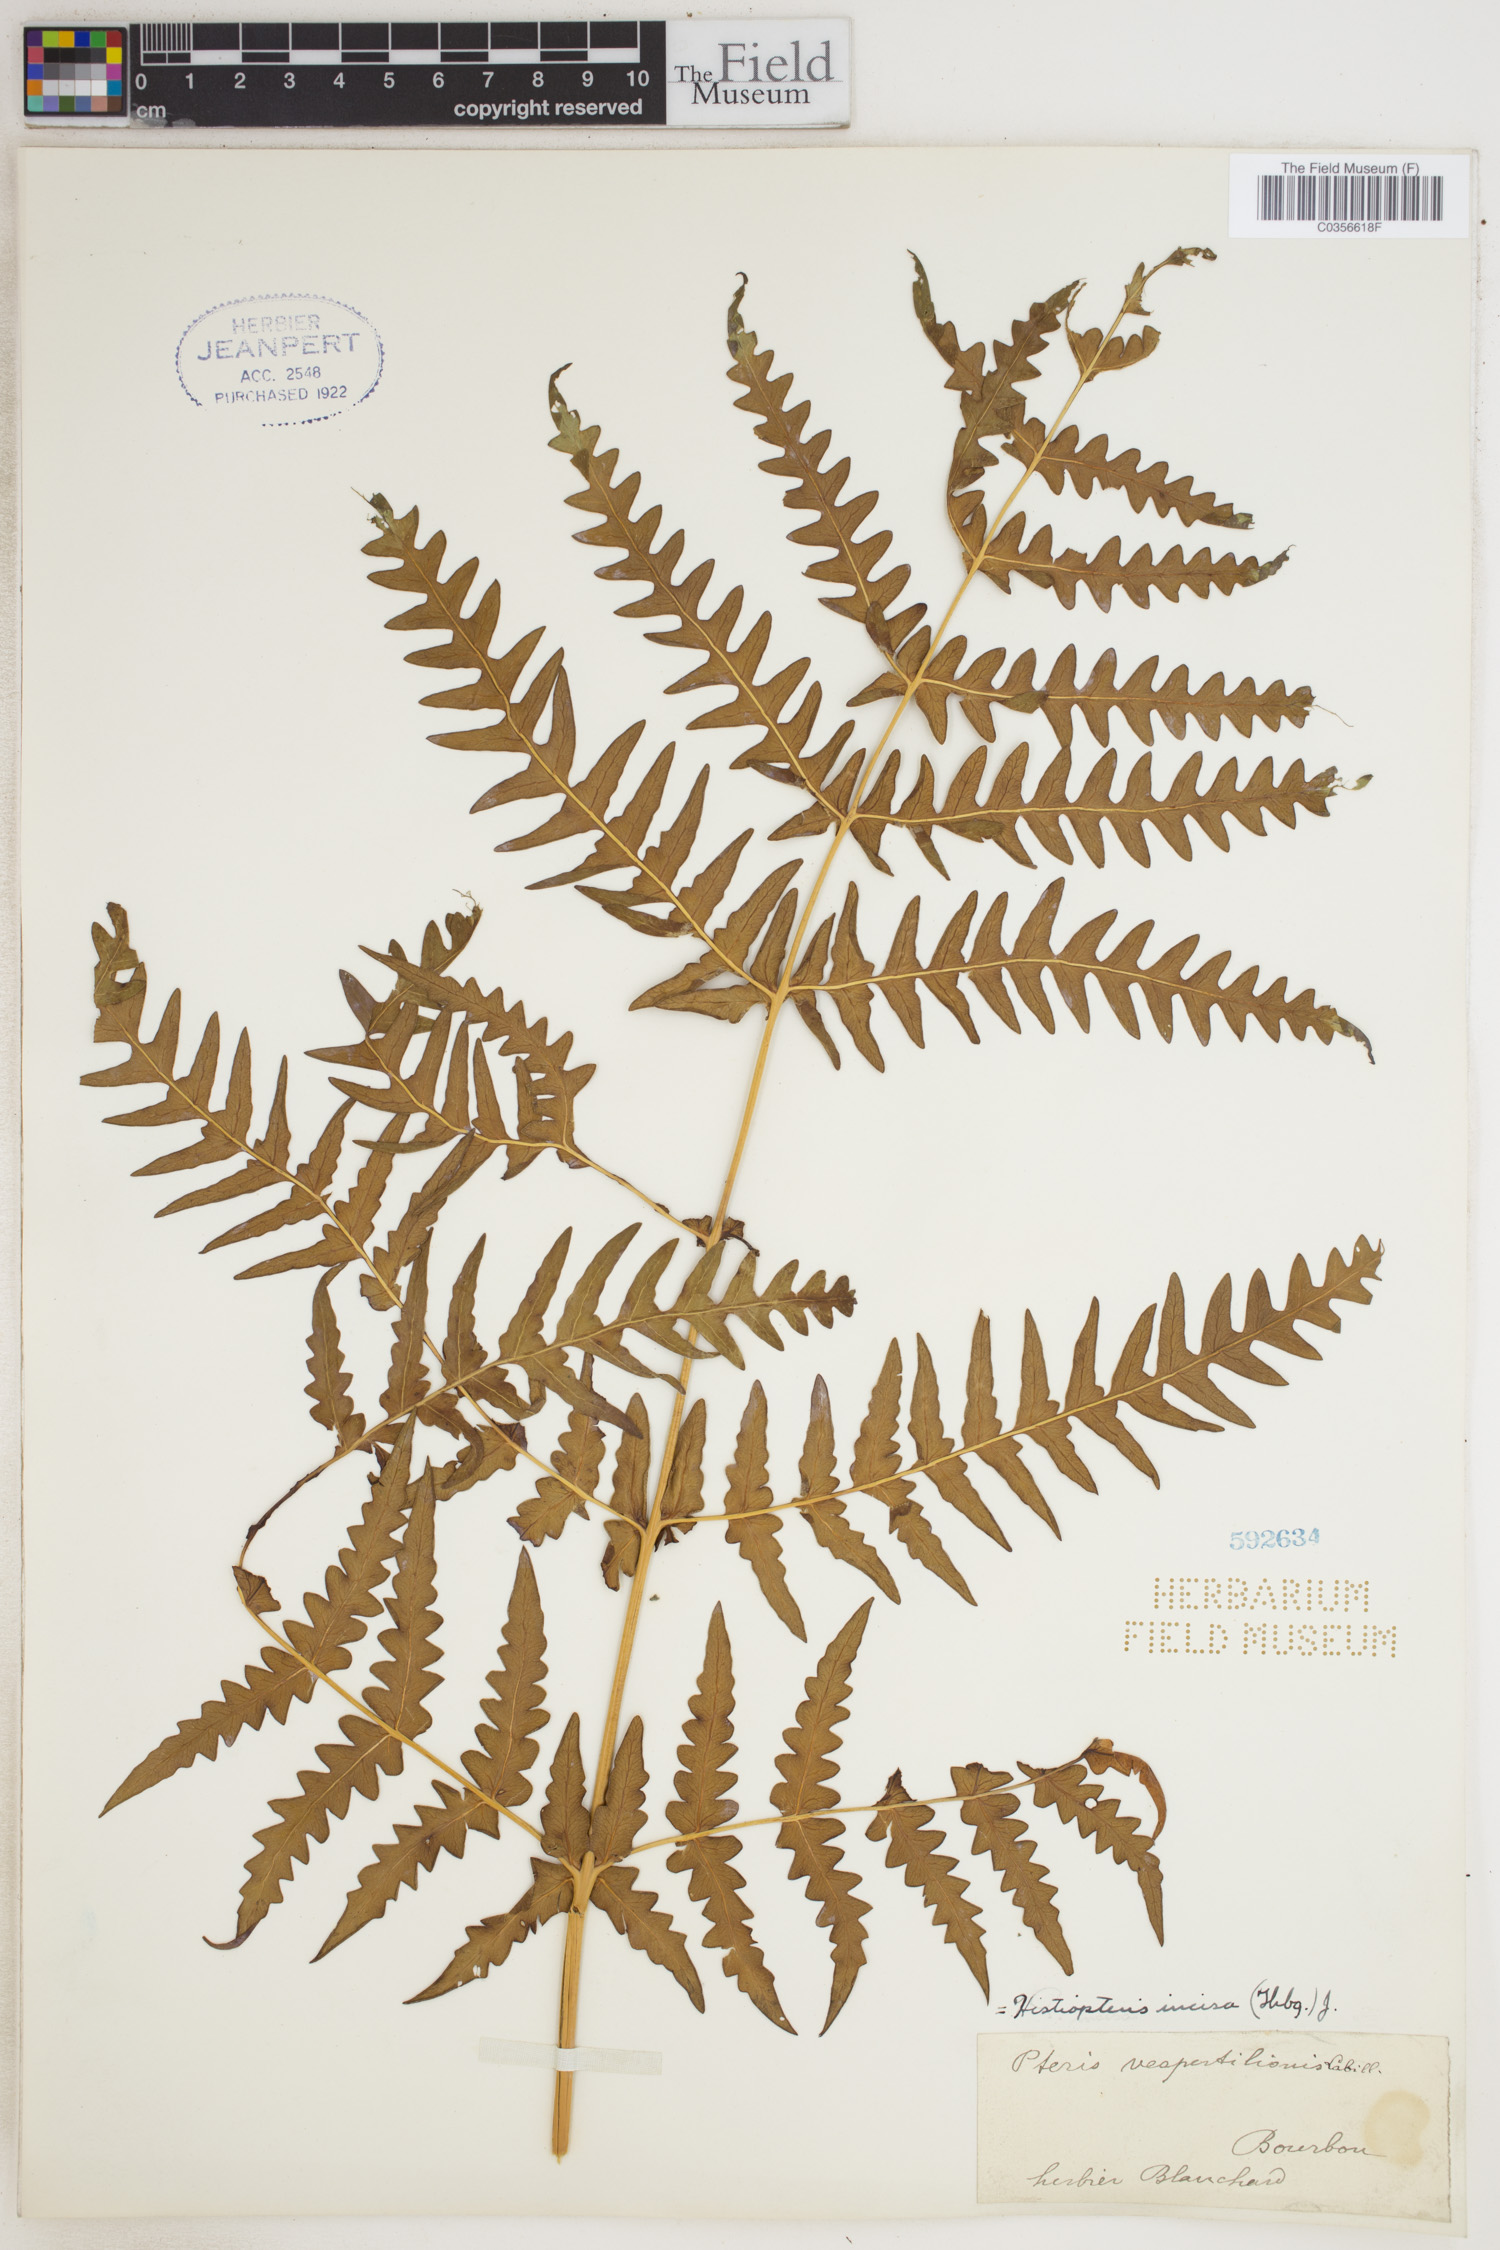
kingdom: Plantae
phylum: Tracheophyta
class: Polypodiopsida
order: Polypodiales
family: Dennstaedtiaceae
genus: Histiopteris
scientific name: Histiopteris incisa
